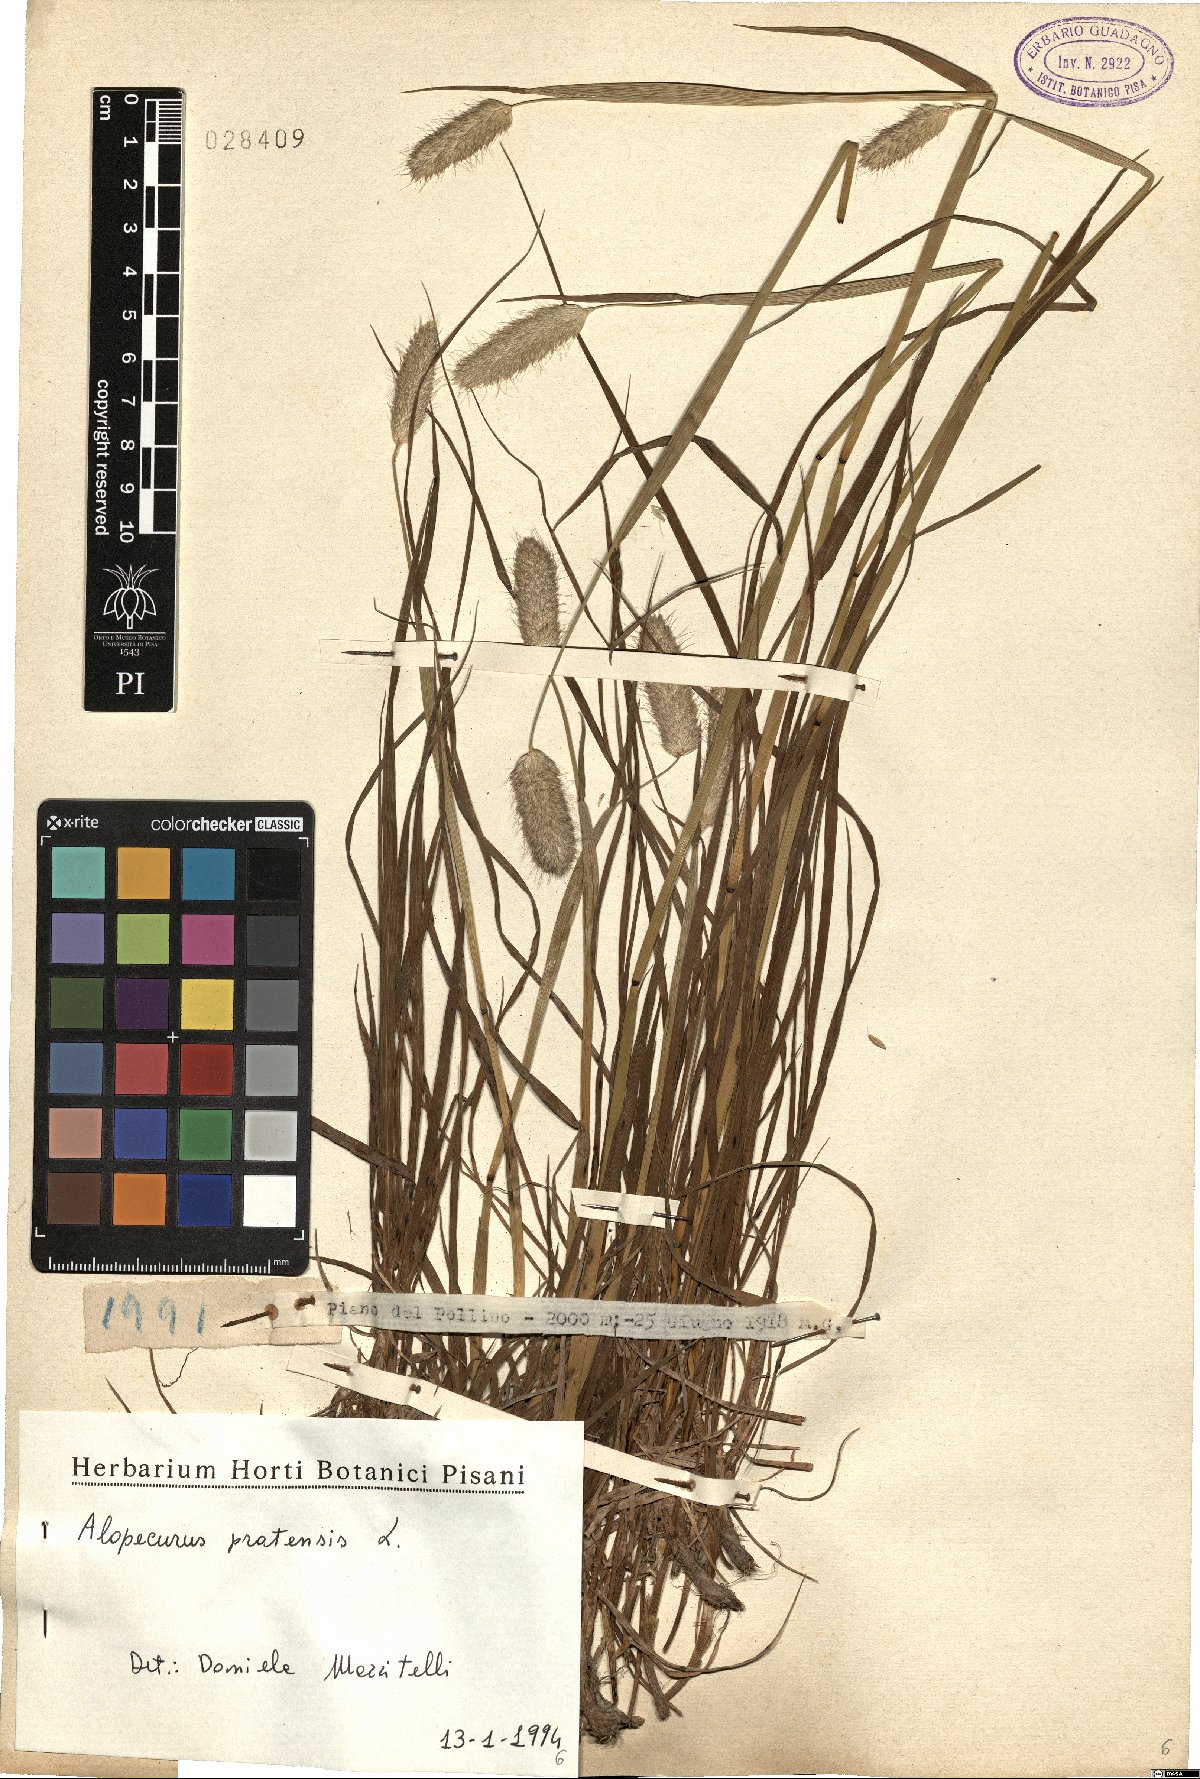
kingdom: Plantae
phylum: Tracheophyta
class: Liliopsida
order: Poales
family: Poaceae
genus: Alopecurus
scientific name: Alopecurus pratensis
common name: Meadow foxtail
